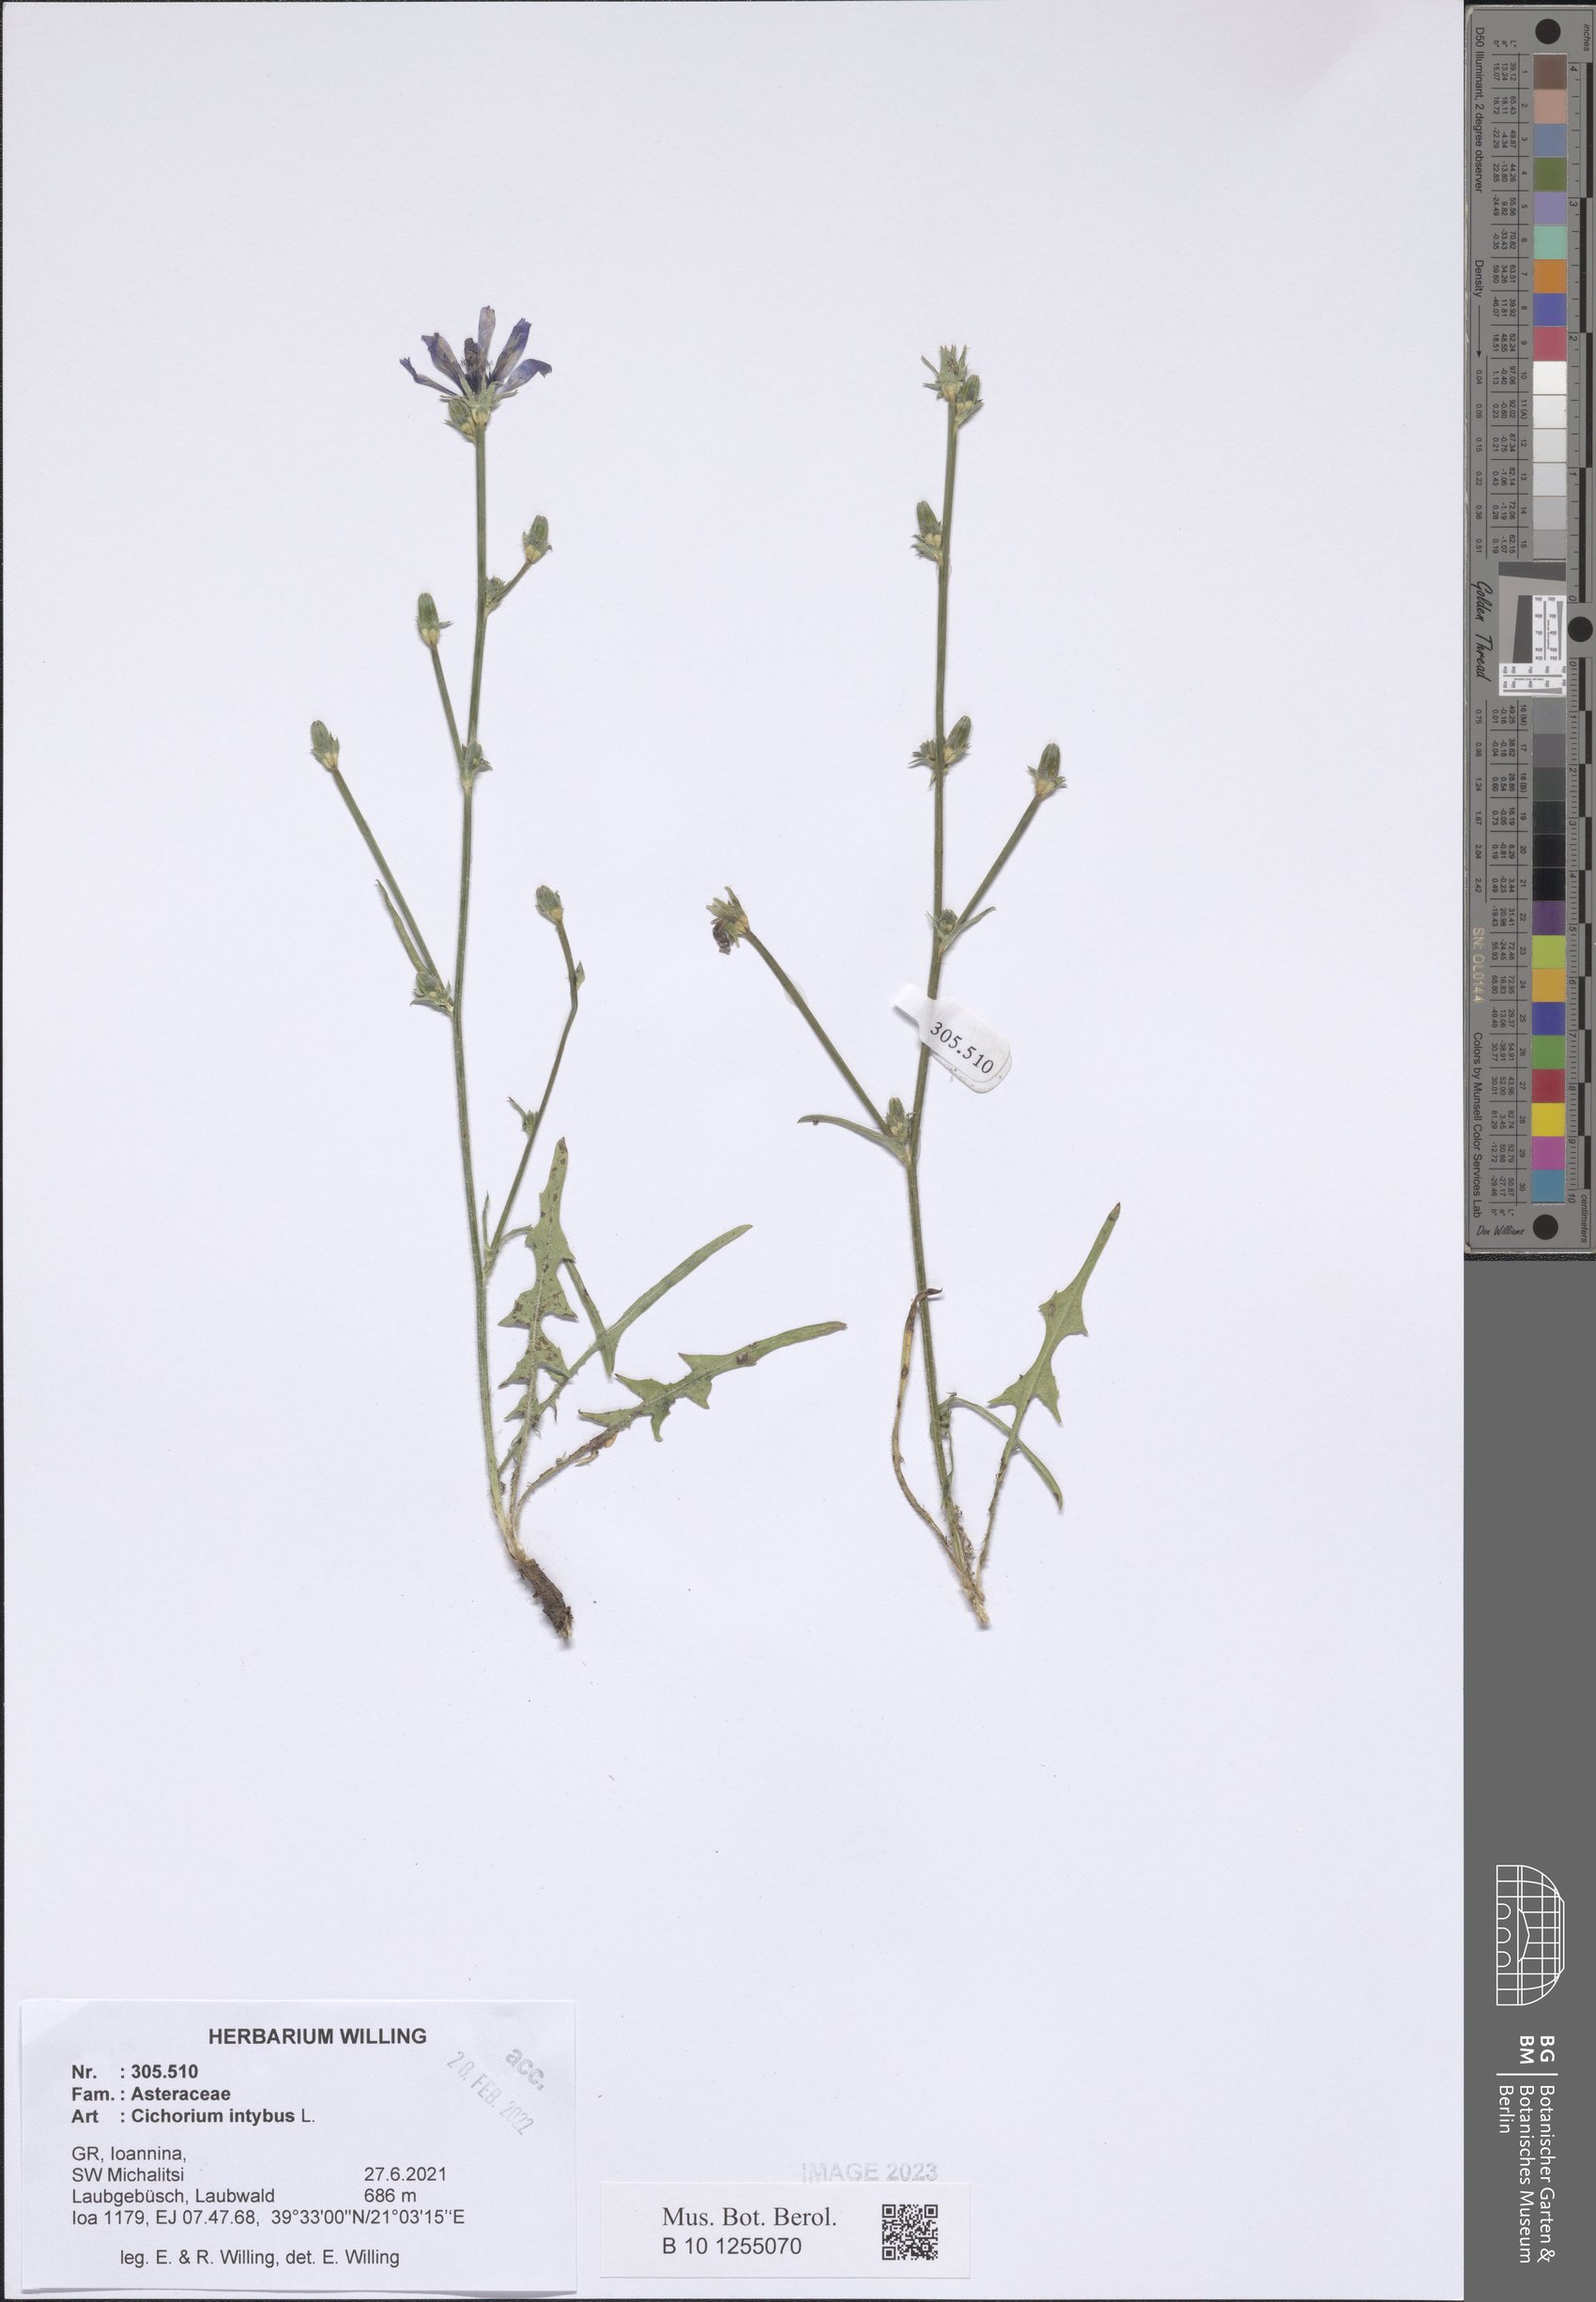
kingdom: Plantae
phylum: Tracheophyta
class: Magnoliopsida
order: Asterales
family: Asteraceae
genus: Cichorium
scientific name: Cichorium intybus
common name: Chicory
